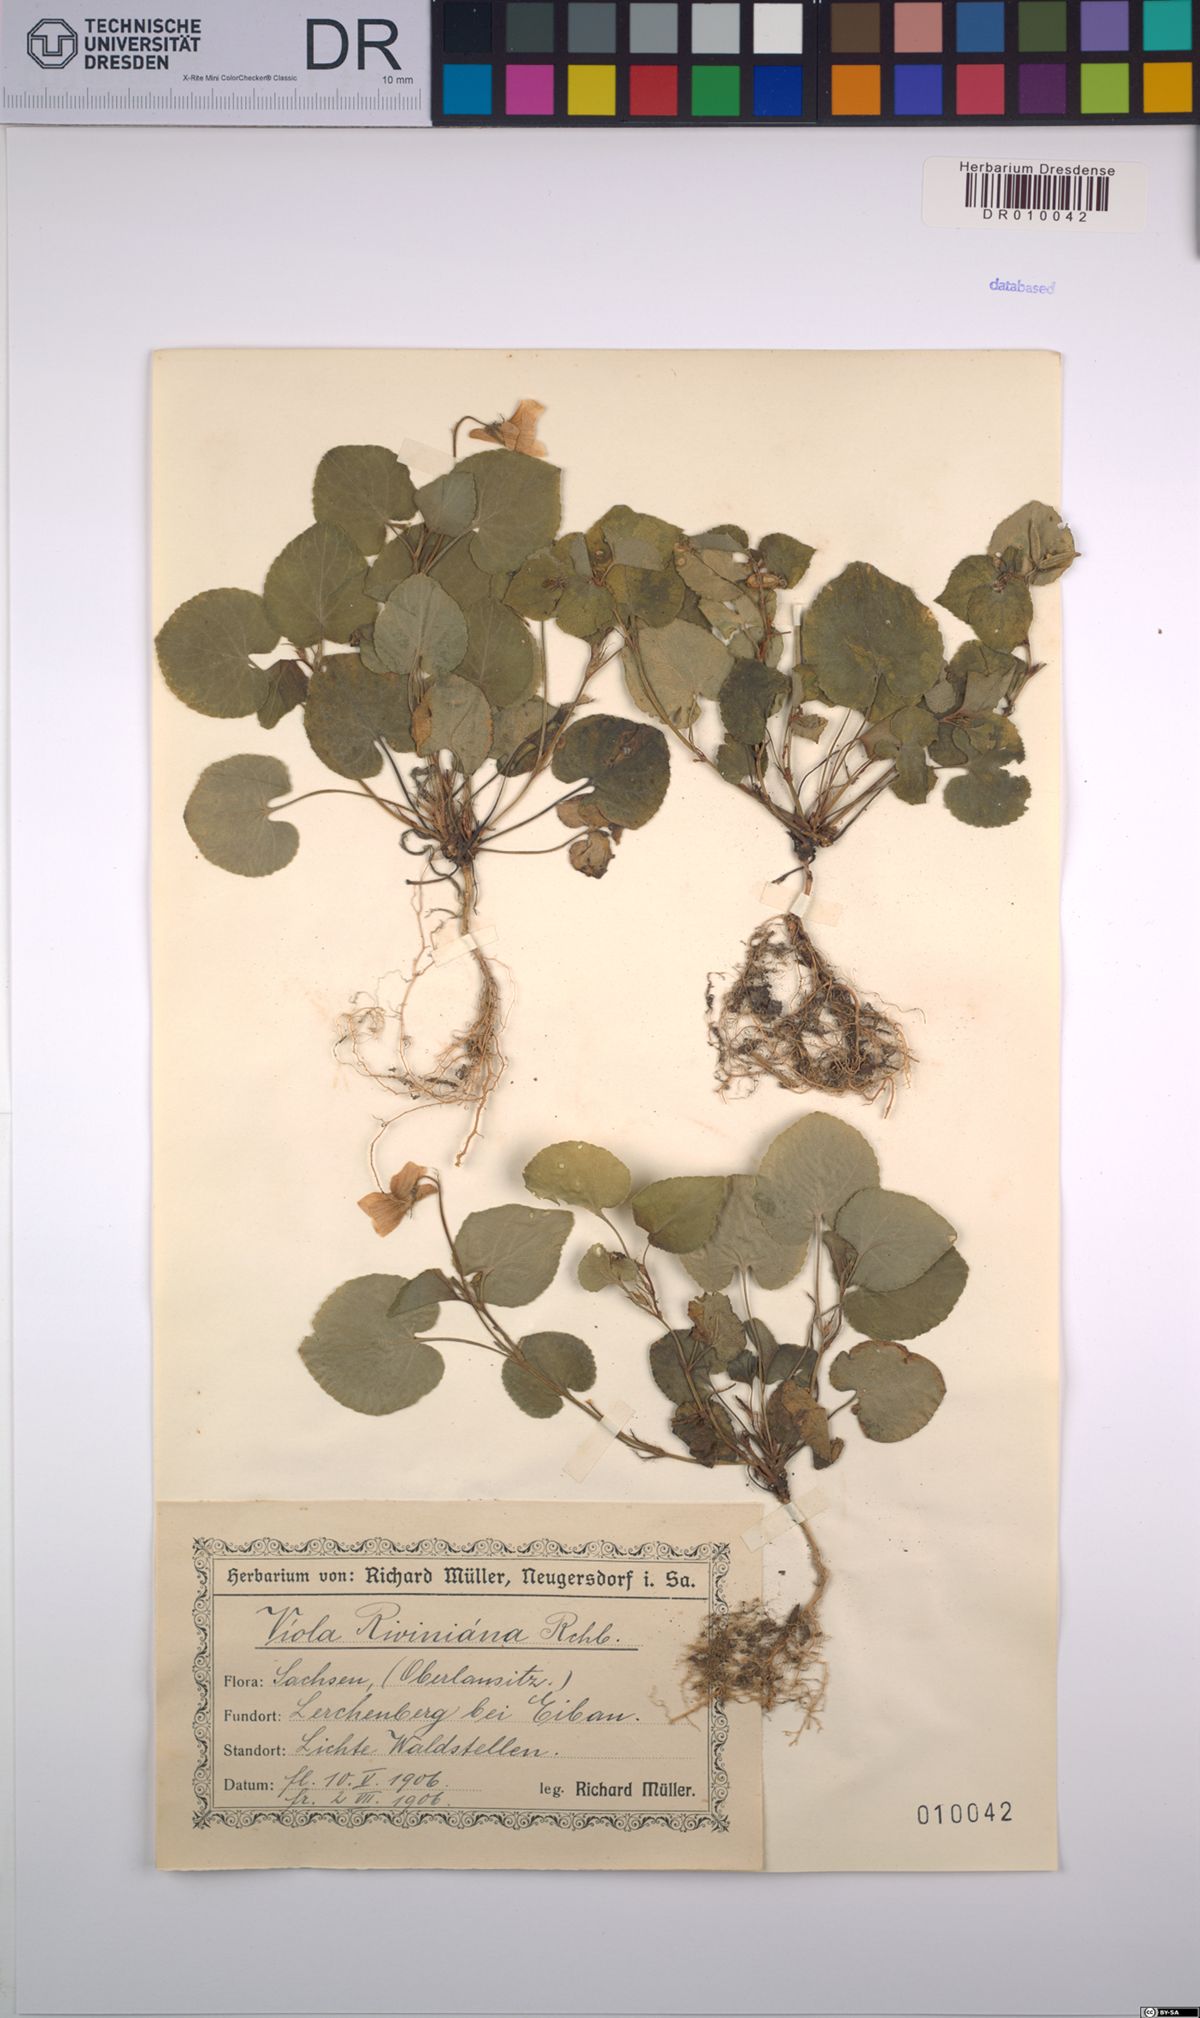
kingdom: Plantae
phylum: Tracheophyta
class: Magnoliopsida
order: Malpighiales
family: Violaceae
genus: Viola
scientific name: Viola riviniana
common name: Common dog-violet
